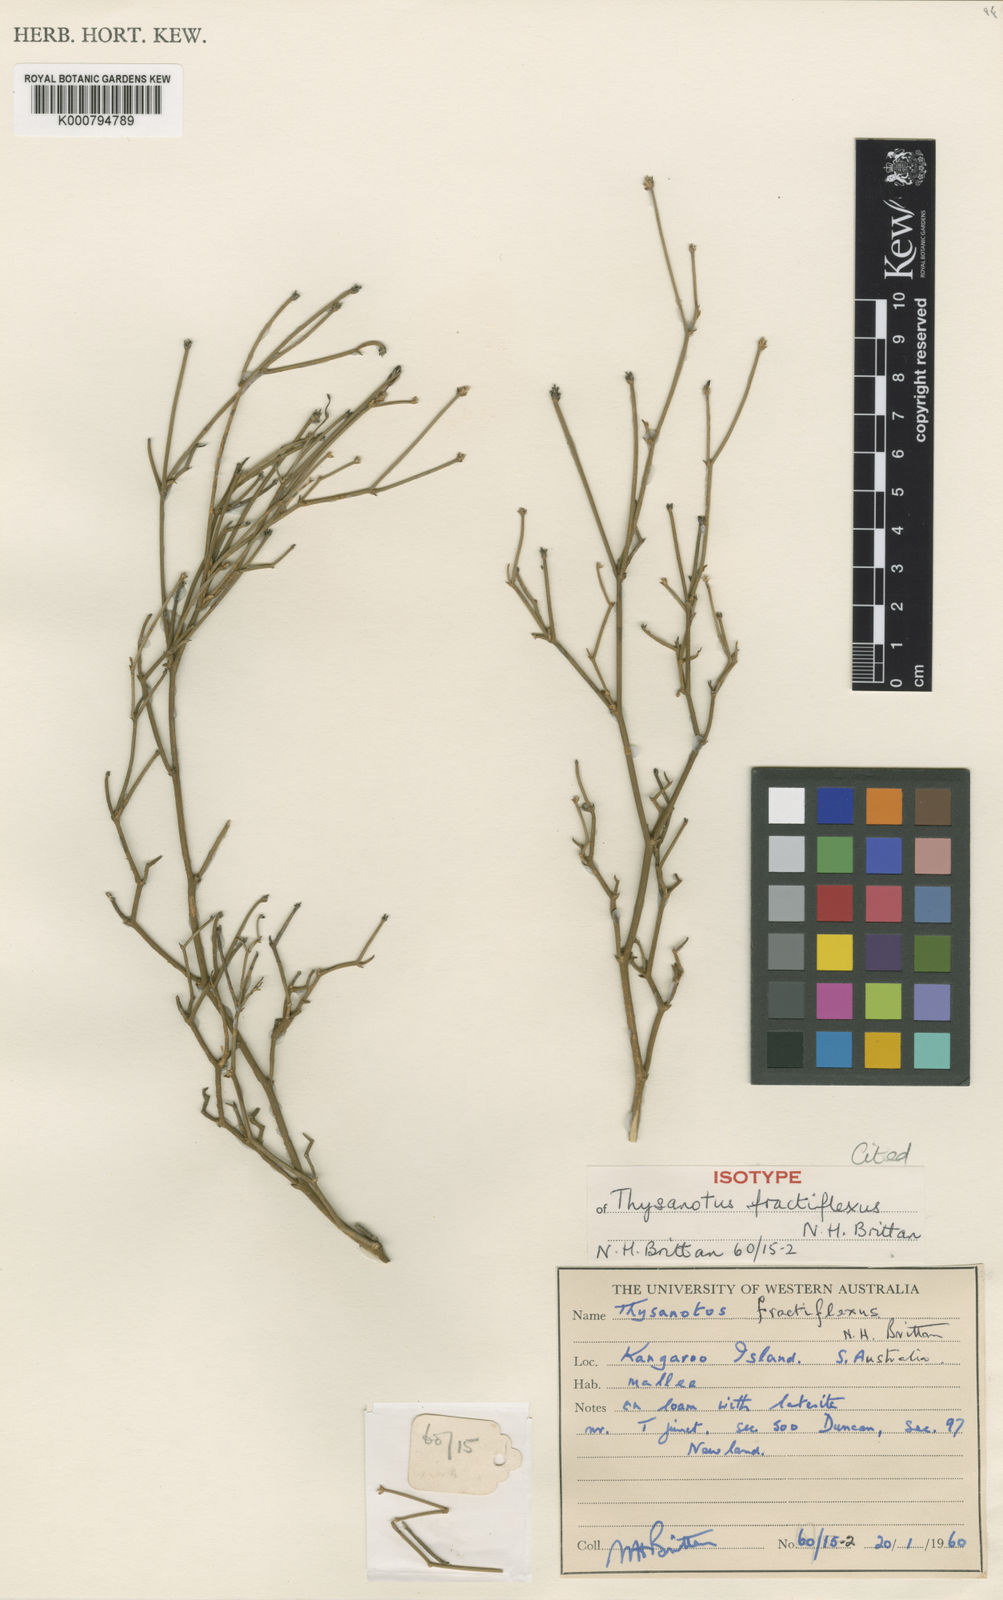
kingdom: Plantae
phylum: Tracheophyta
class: Liliopsida
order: Asparagales
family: Asparagaceae
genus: Thysanotus
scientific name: Thysanotus fractiflexus
